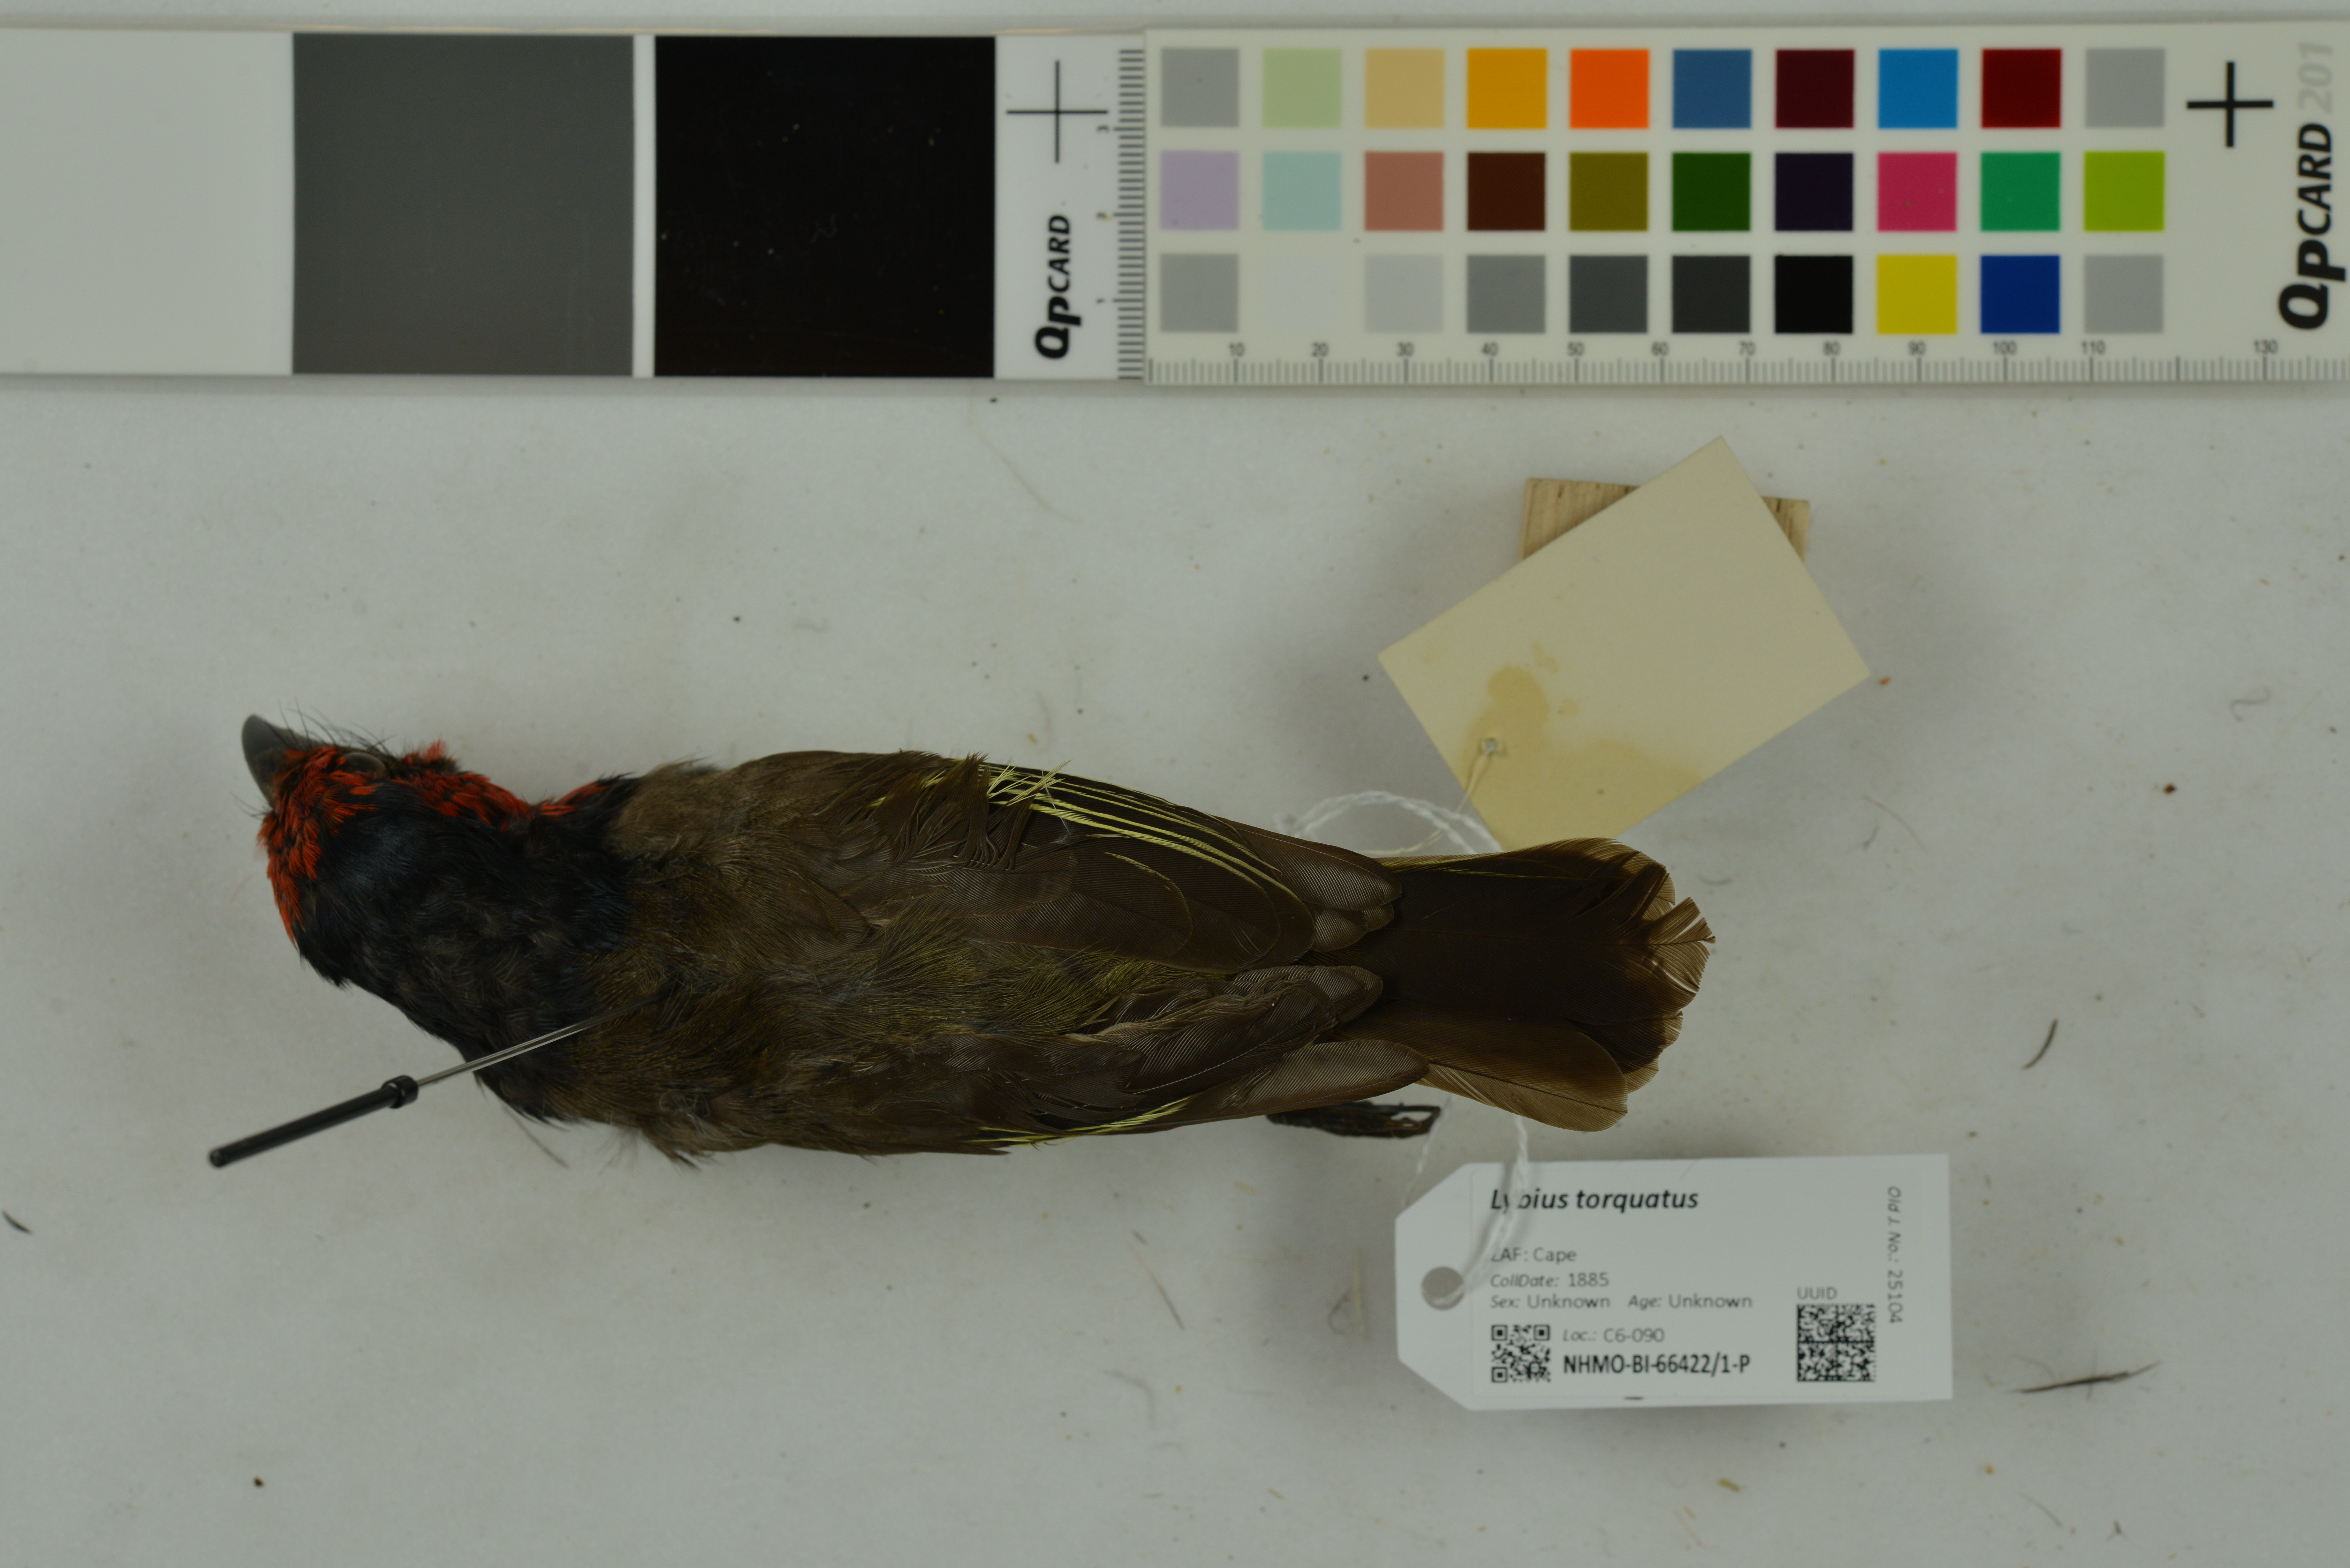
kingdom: Animalia
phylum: Chordata
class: Aves
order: Piciformes
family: Lybiidae
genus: Lybius
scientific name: Lybius torquatus
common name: Black-collared barbet
